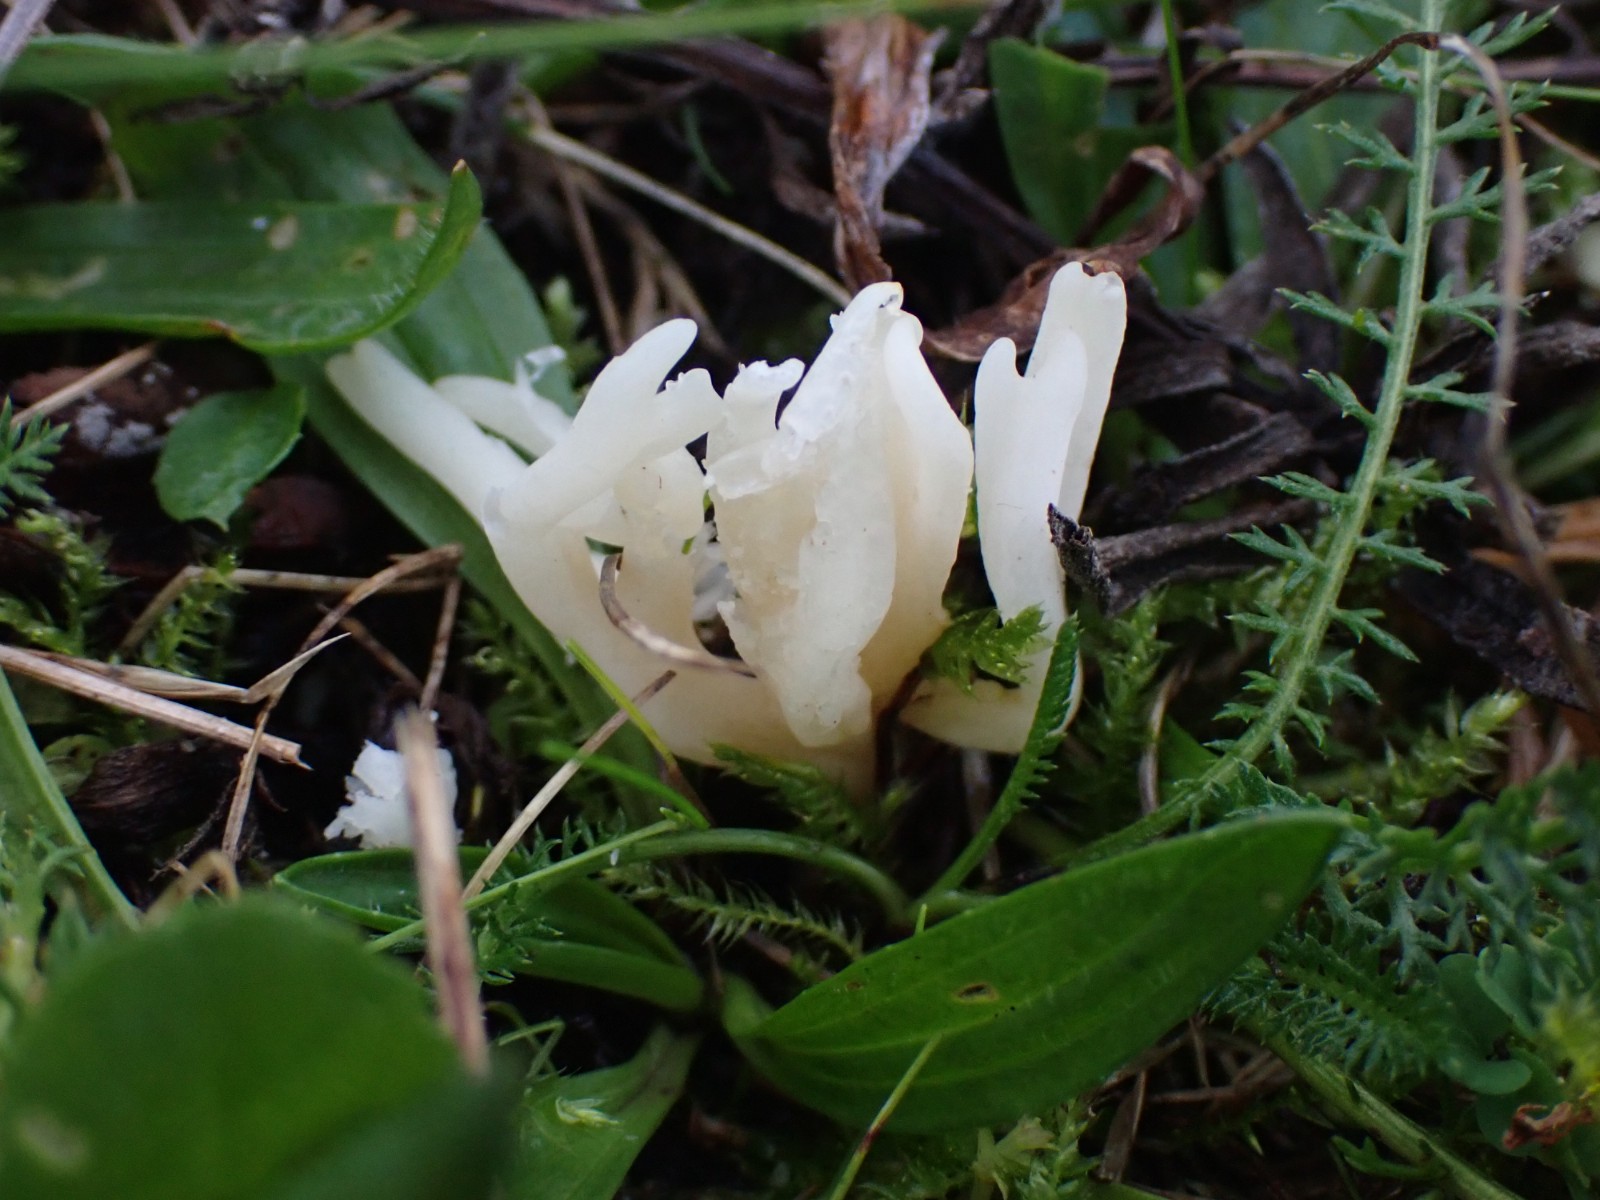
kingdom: Fungi
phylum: Basidiomycota
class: Agaricomycetes
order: Agaricales
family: Clavariaceae
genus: Ramariopsis
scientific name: Ramariopsis kunzei
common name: mangegrenet køllesvamp
